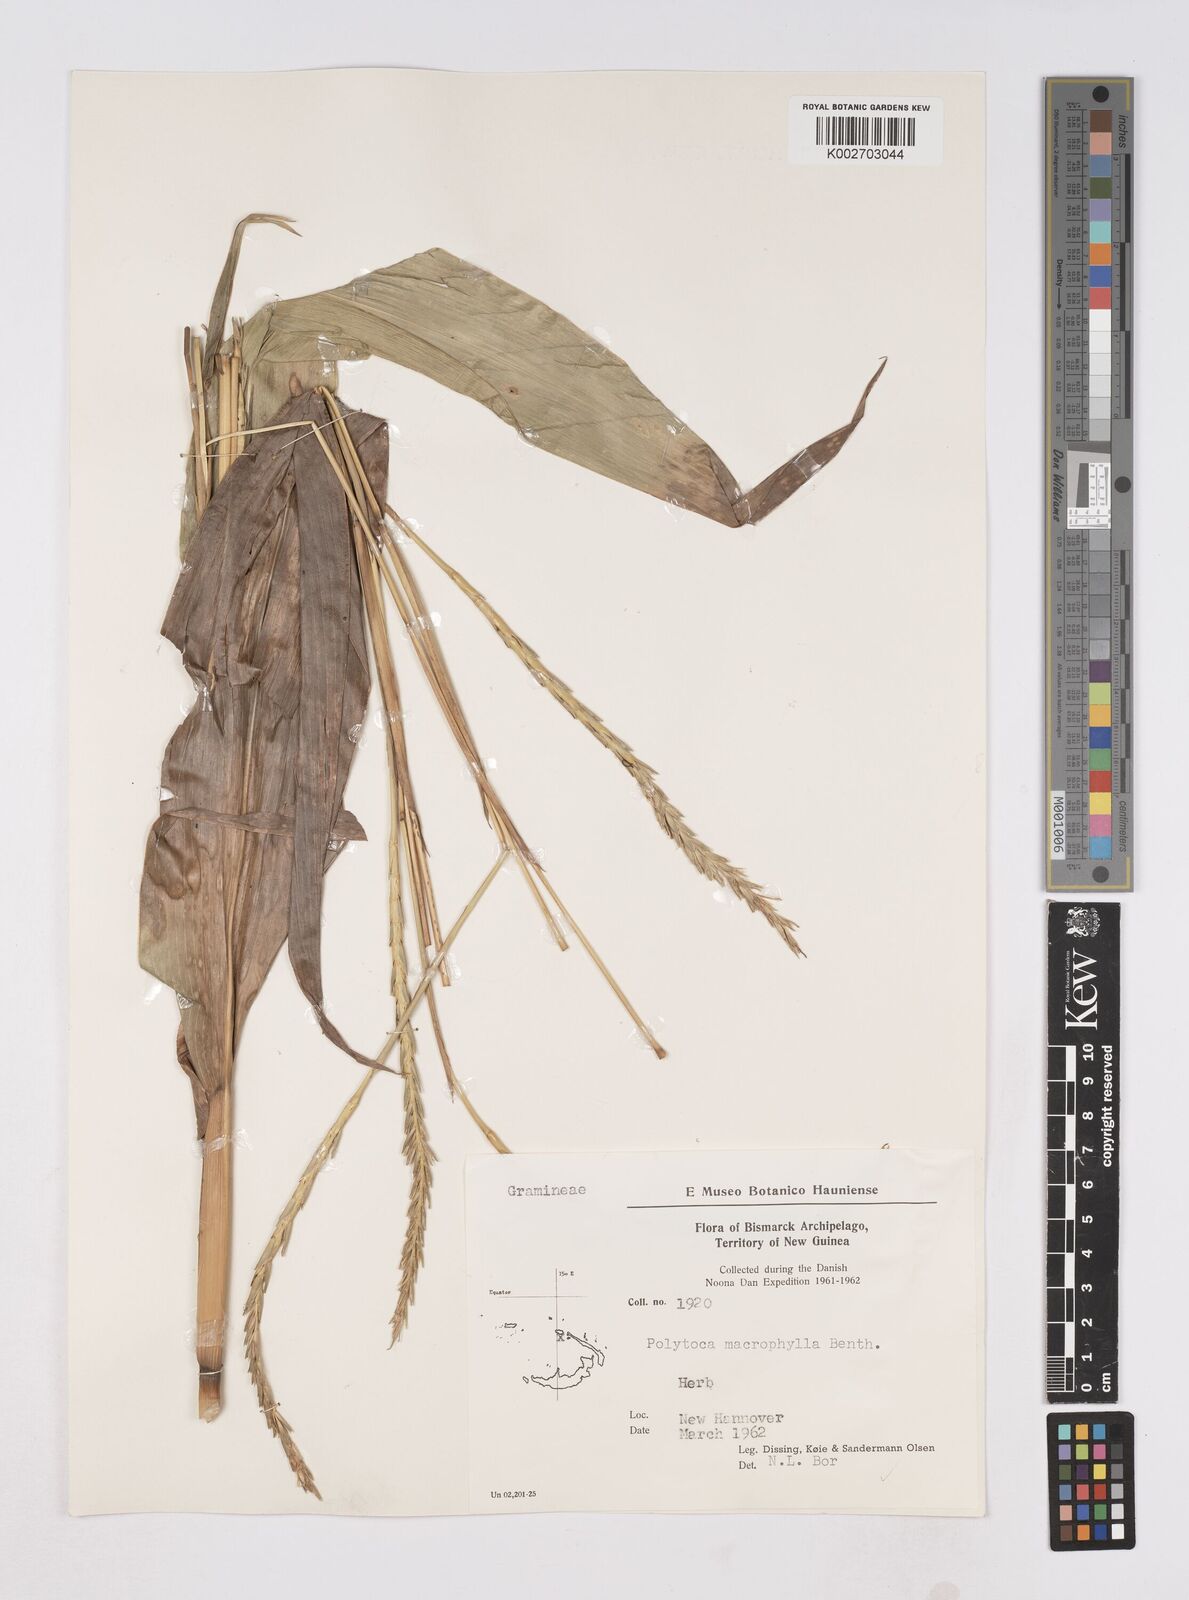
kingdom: Plantae
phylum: Tracheophyta
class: Liliopsida
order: Poales
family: Poaceae
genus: Polytoca
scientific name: Polytoca macrophylla
